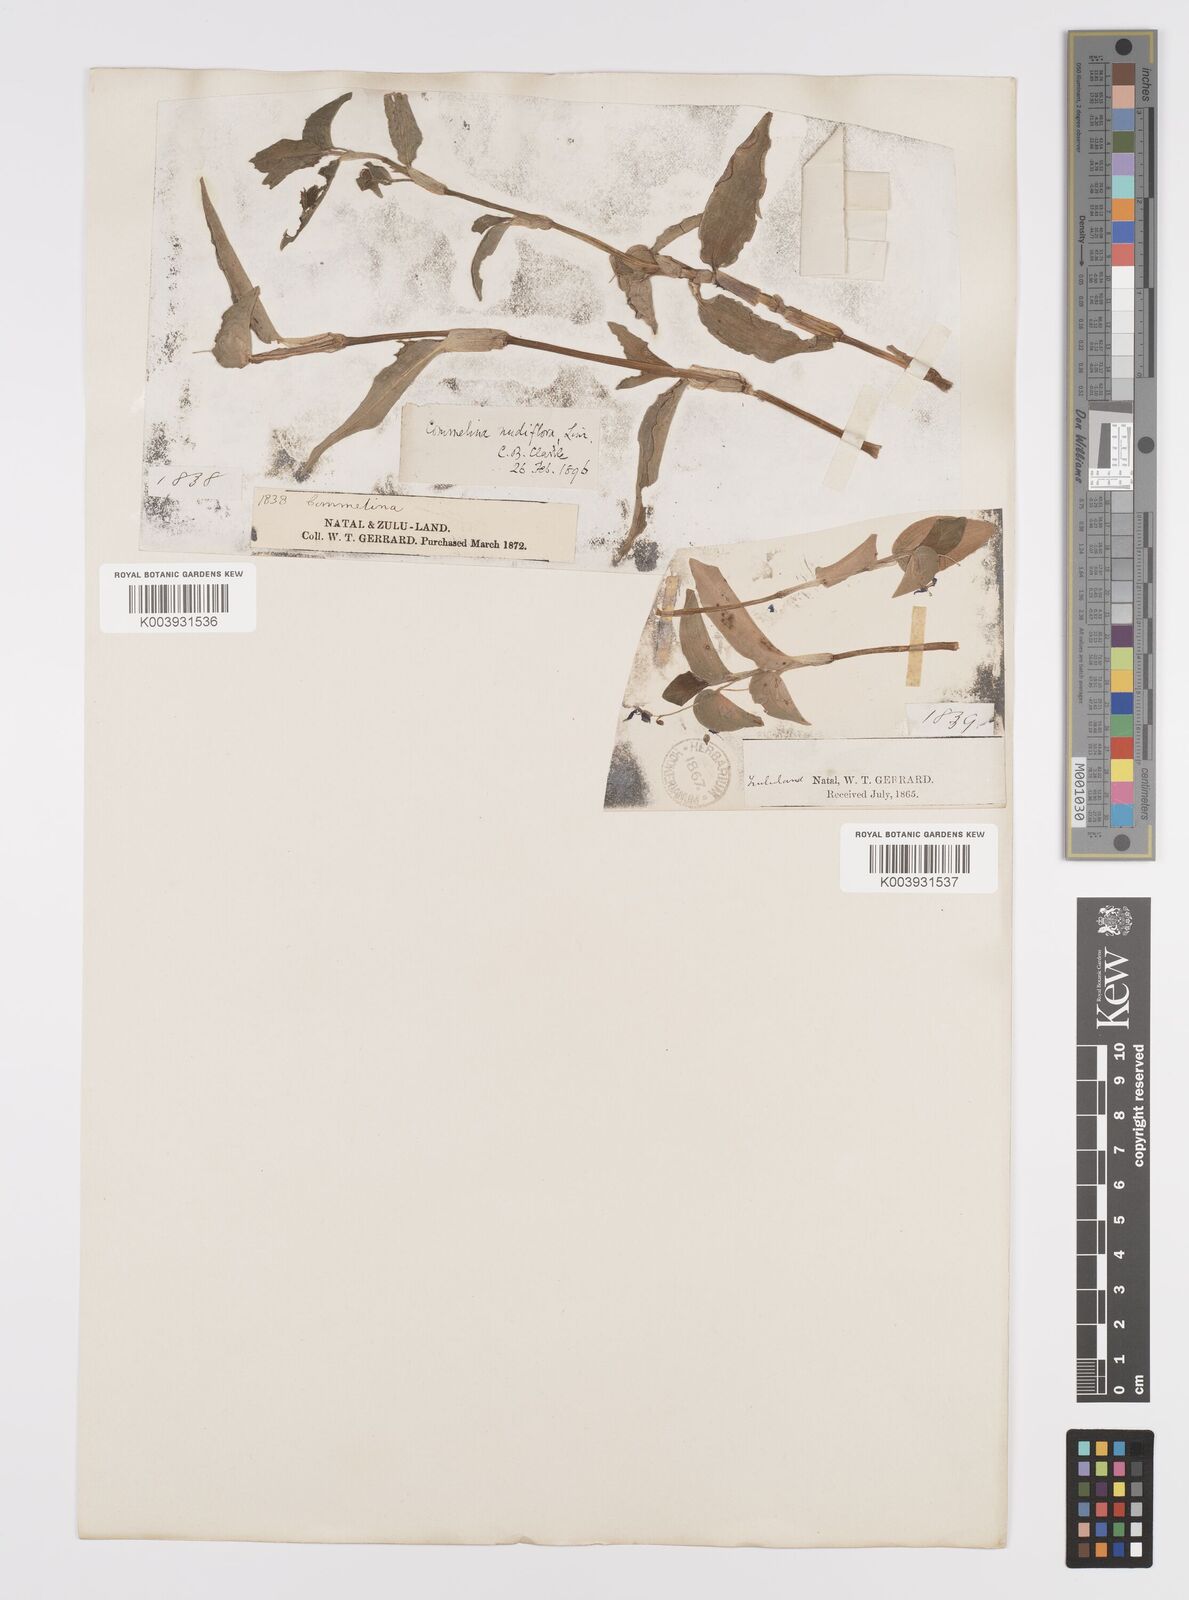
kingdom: Plantae
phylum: Tracheophyta
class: Liliopsida
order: Commelinales
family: Commelinaceae
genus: Commelina
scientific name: Commelina diffusa
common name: Climbing dayflower
